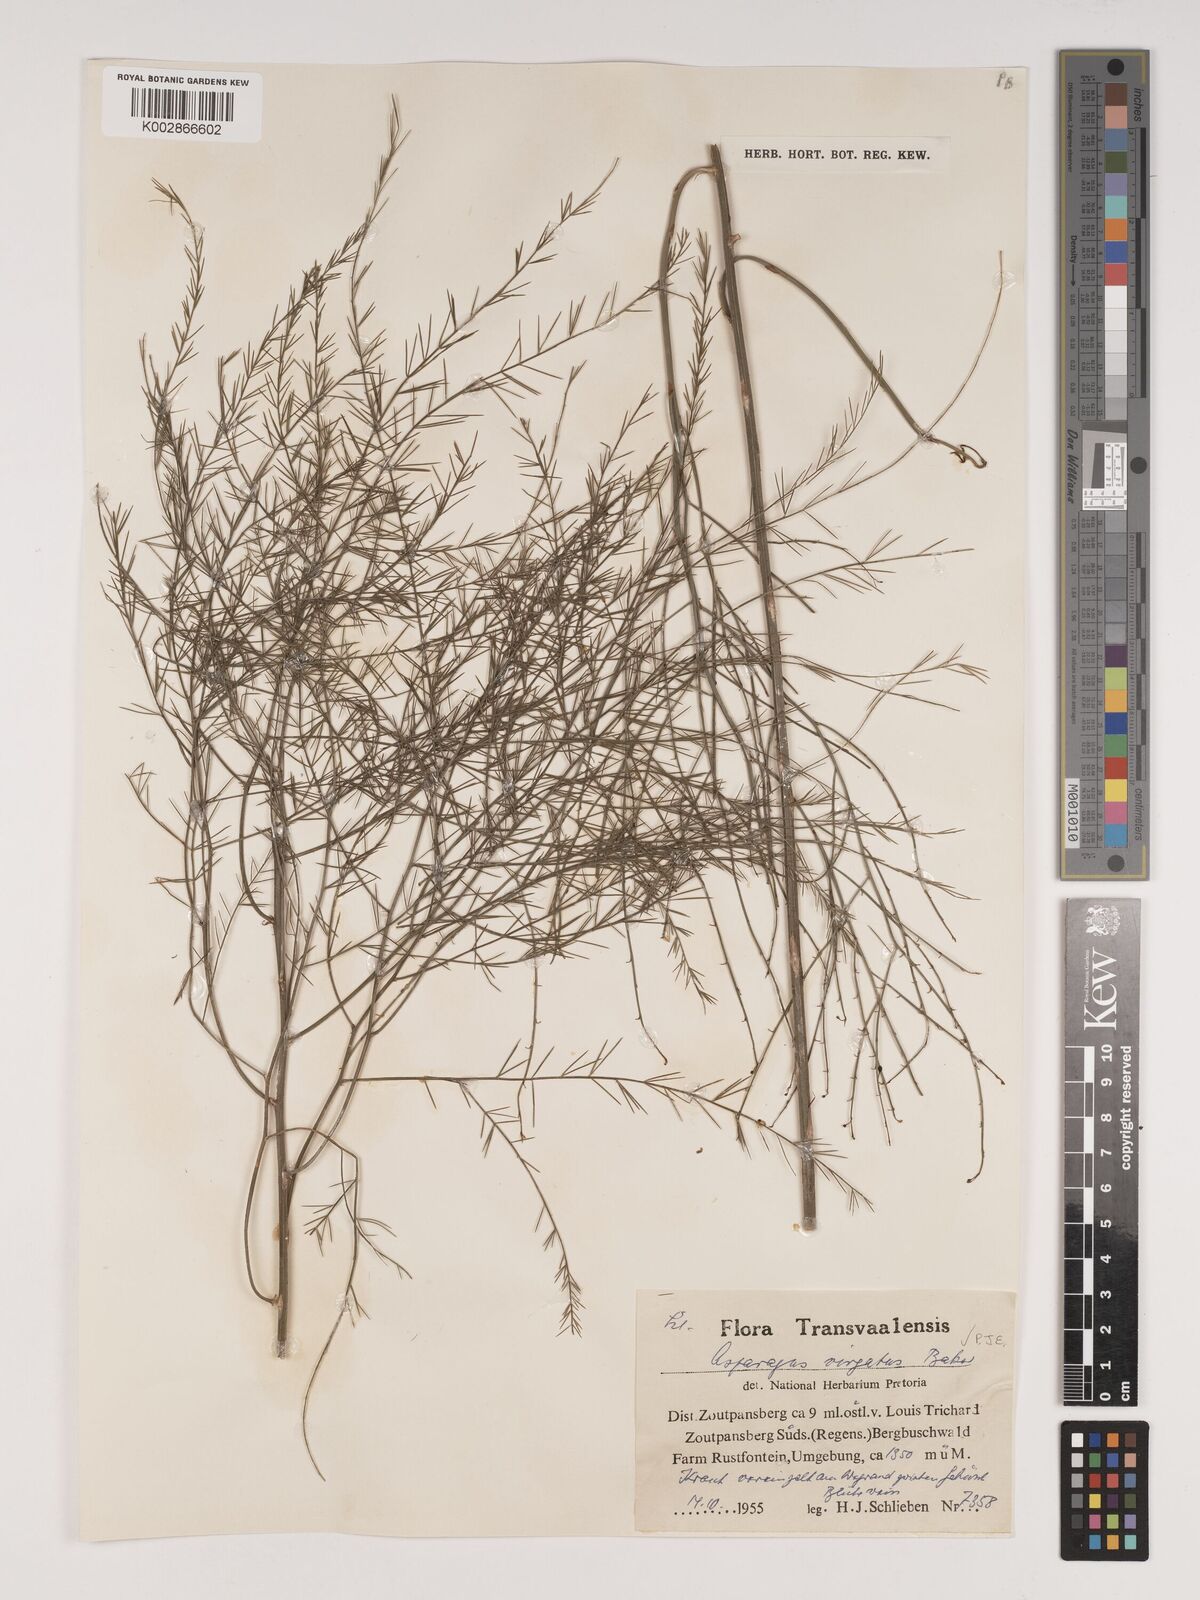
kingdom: Plantae
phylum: Tracheophyta
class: Liliopsida
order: Asparagales
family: Asparagaceae
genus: Asparagus
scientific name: Asparagus virgatus
